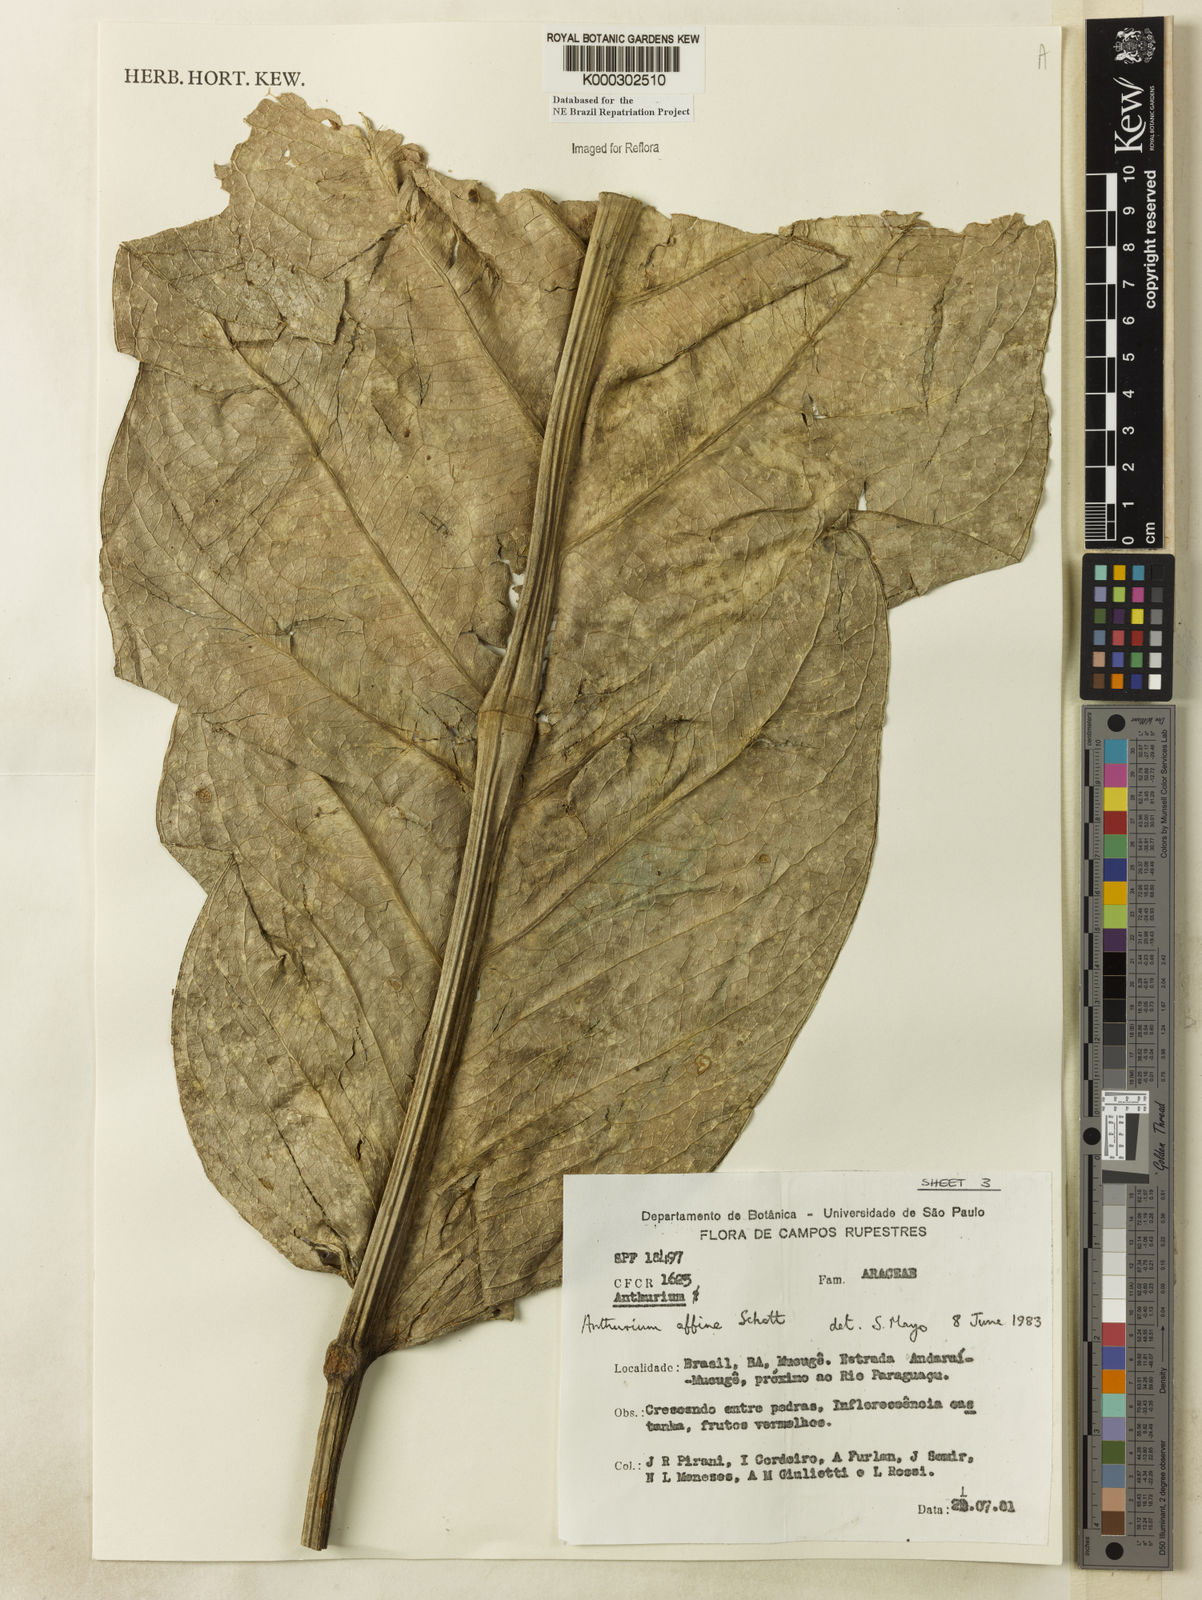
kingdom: Plantae
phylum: Tracheophyta
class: Liliopsida
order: Alismatales
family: Araceae
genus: Anthurium
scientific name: Anthurium affine
